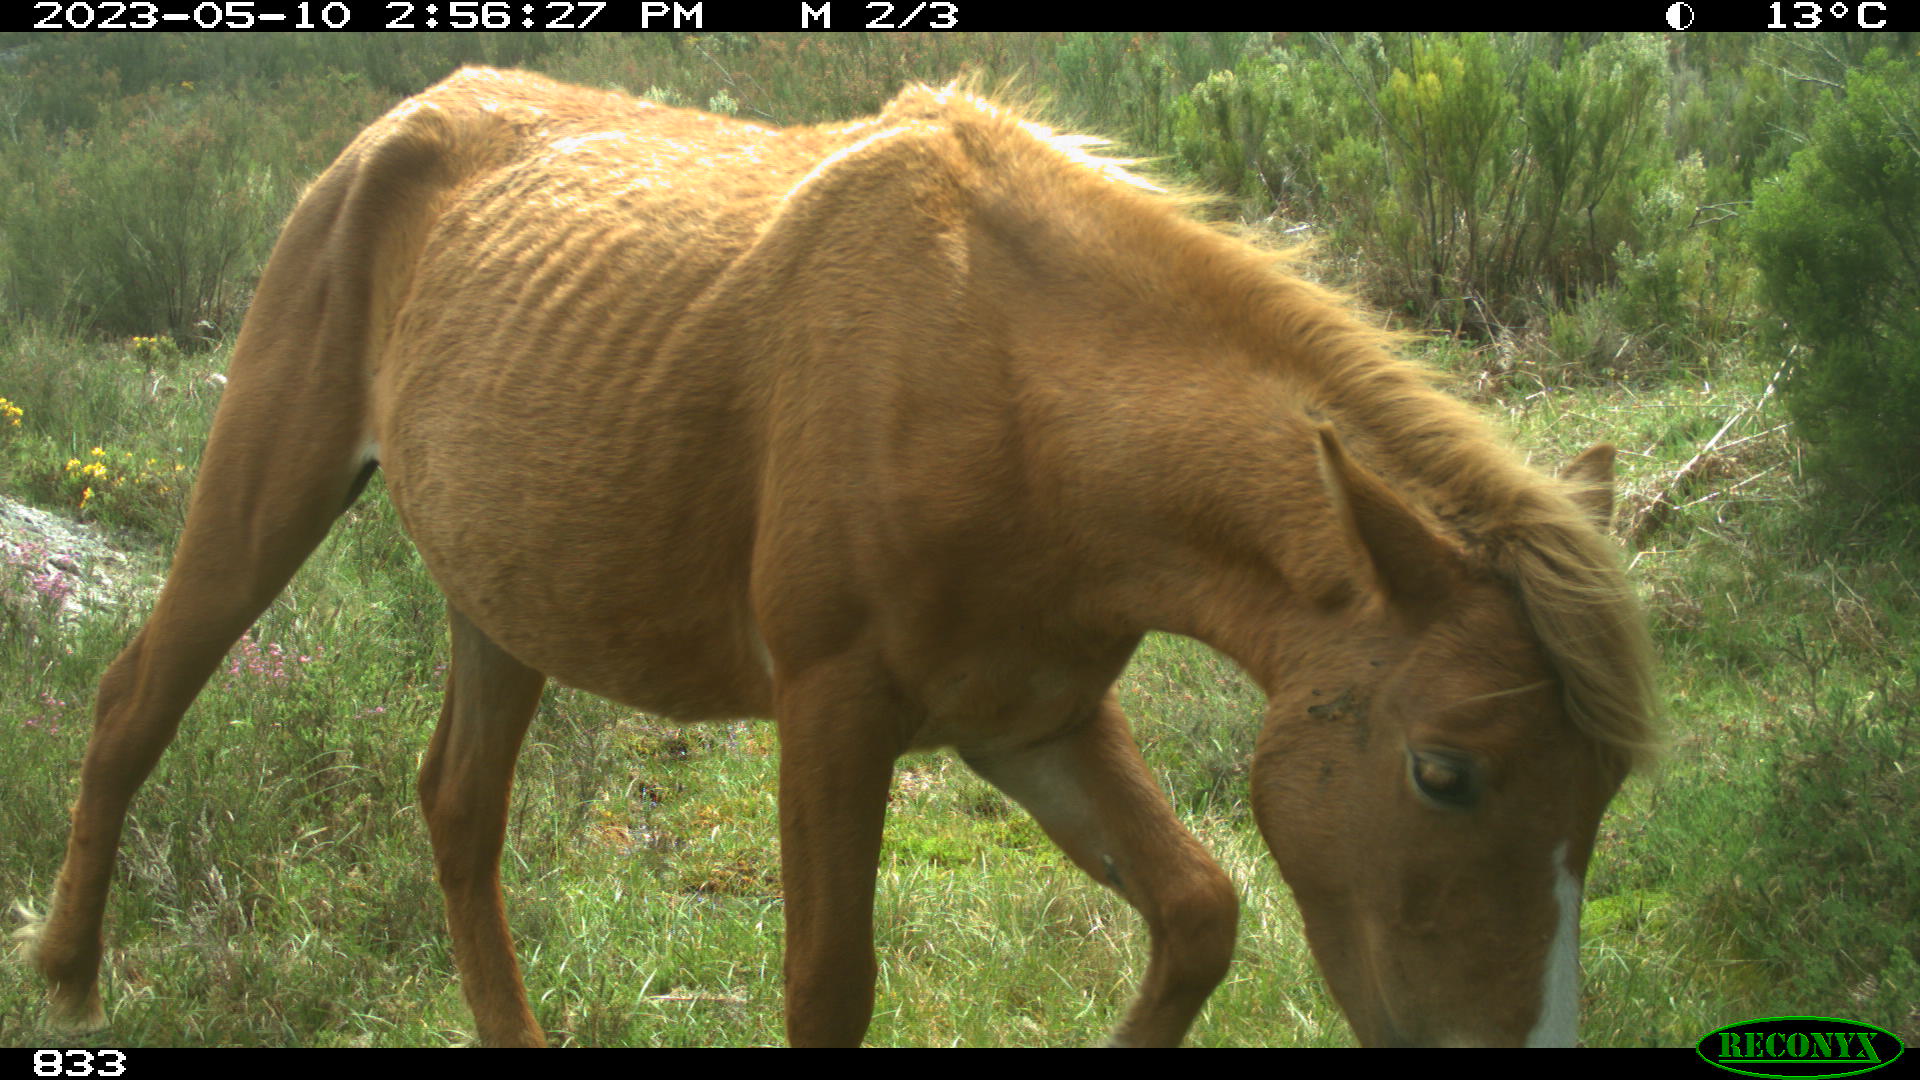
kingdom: Animalia
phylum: Chordata
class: Mammalia
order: Perissodactyla
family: Equidae
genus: Equus
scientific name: Equus caballus
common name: Horse
